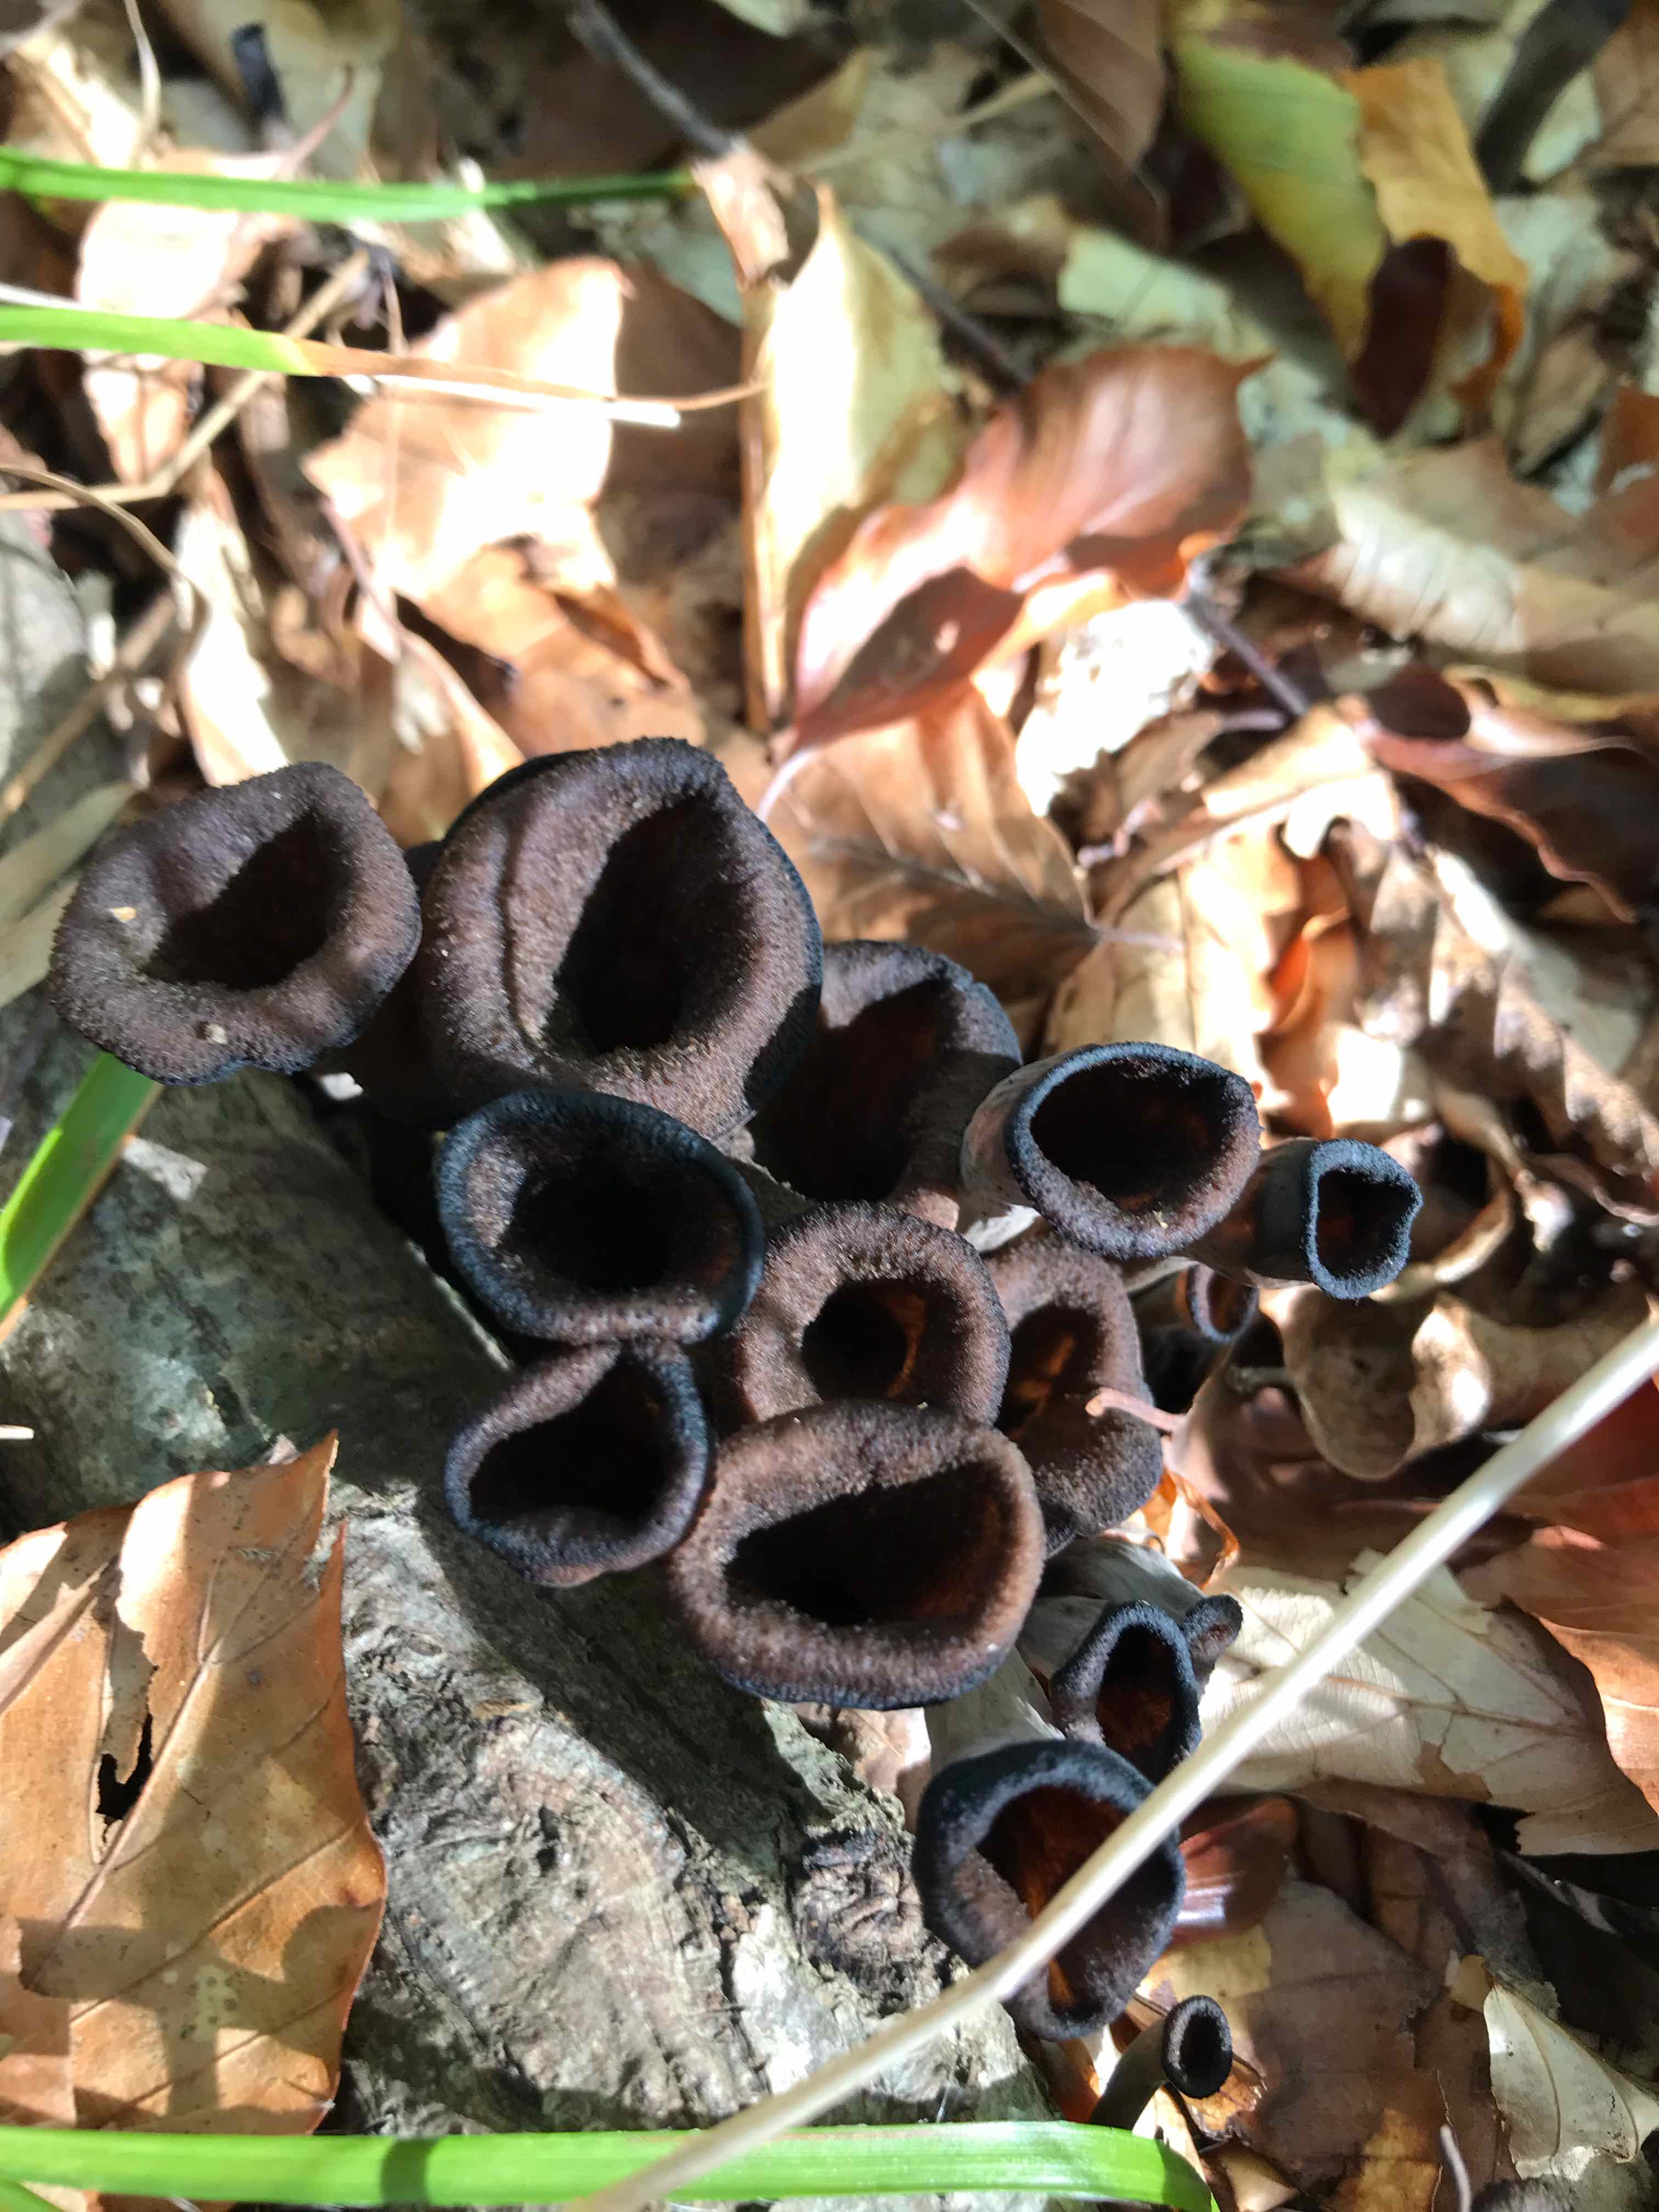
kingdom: Fungi
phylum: Basidiomycota
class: Agaricomycetes
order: Cantharellales
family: Hydnaceae
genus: Craterellus
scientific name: Craterellus cornucopioides
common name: trompetsvamp
